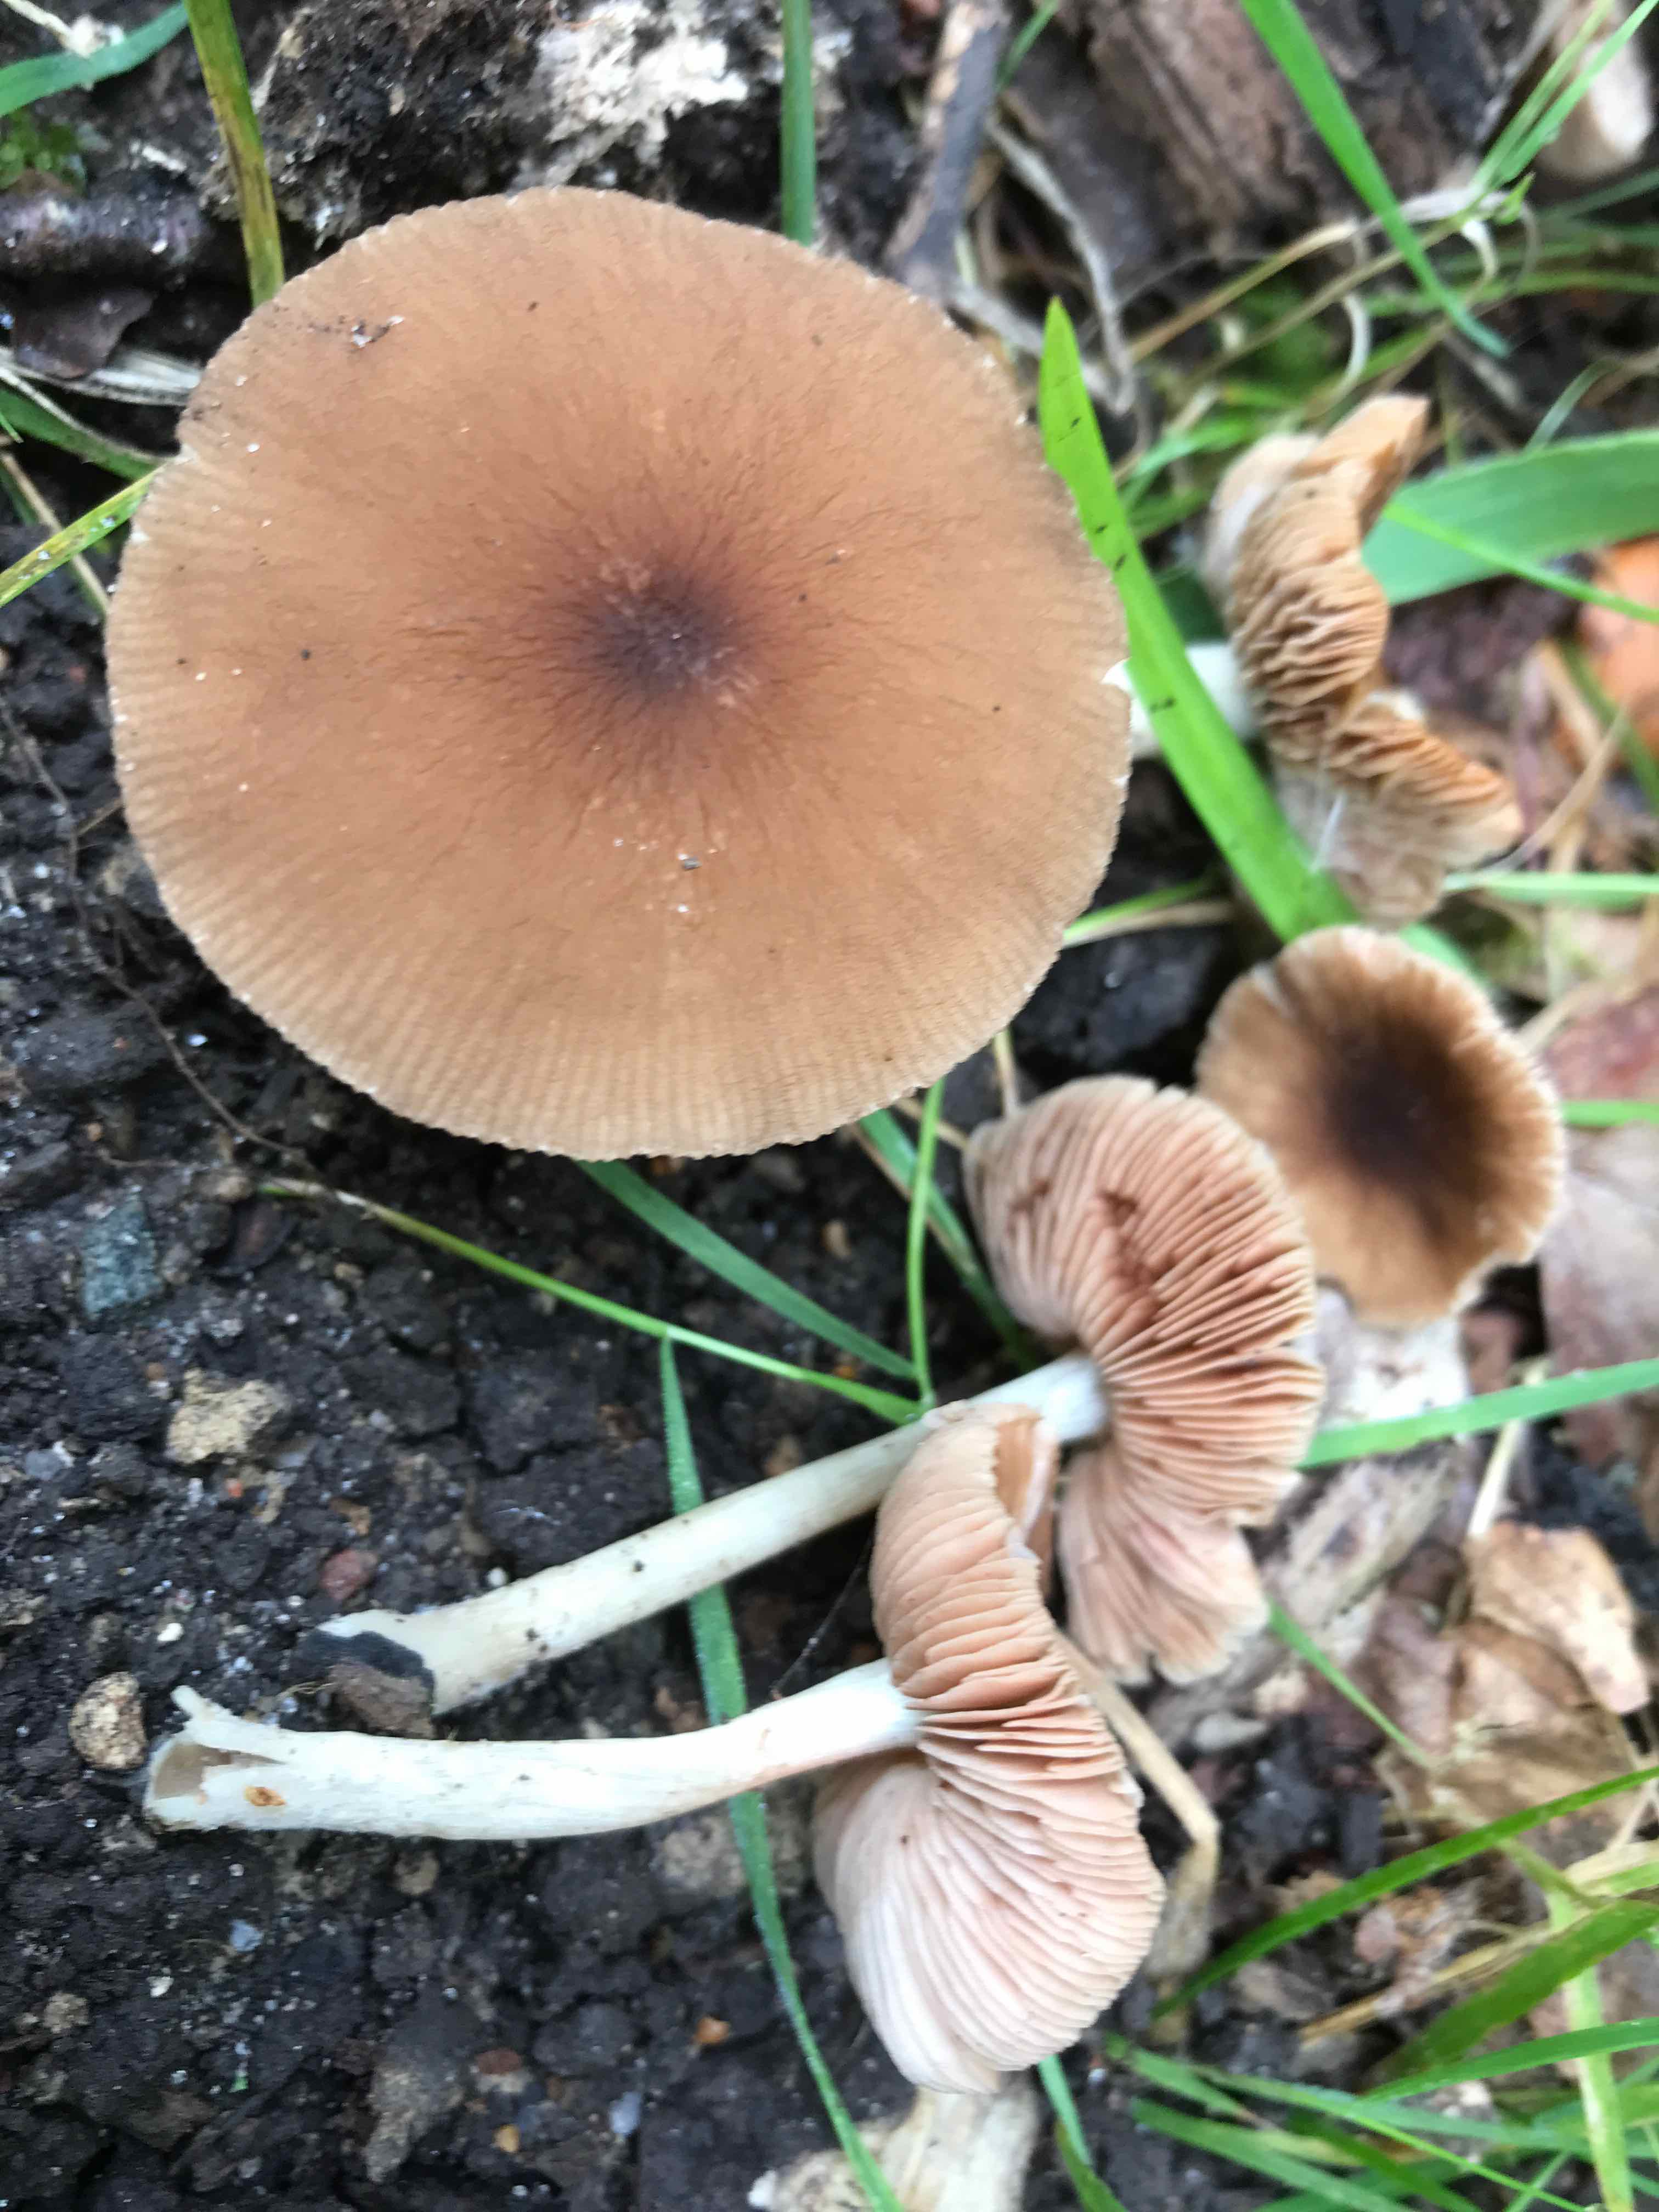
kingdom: Fungi
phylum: Basidiomycota
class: Agaricomycetes
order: Agaricales
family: Pluteaceae
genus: Pluteus
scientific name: Pluteus phlebophorus
